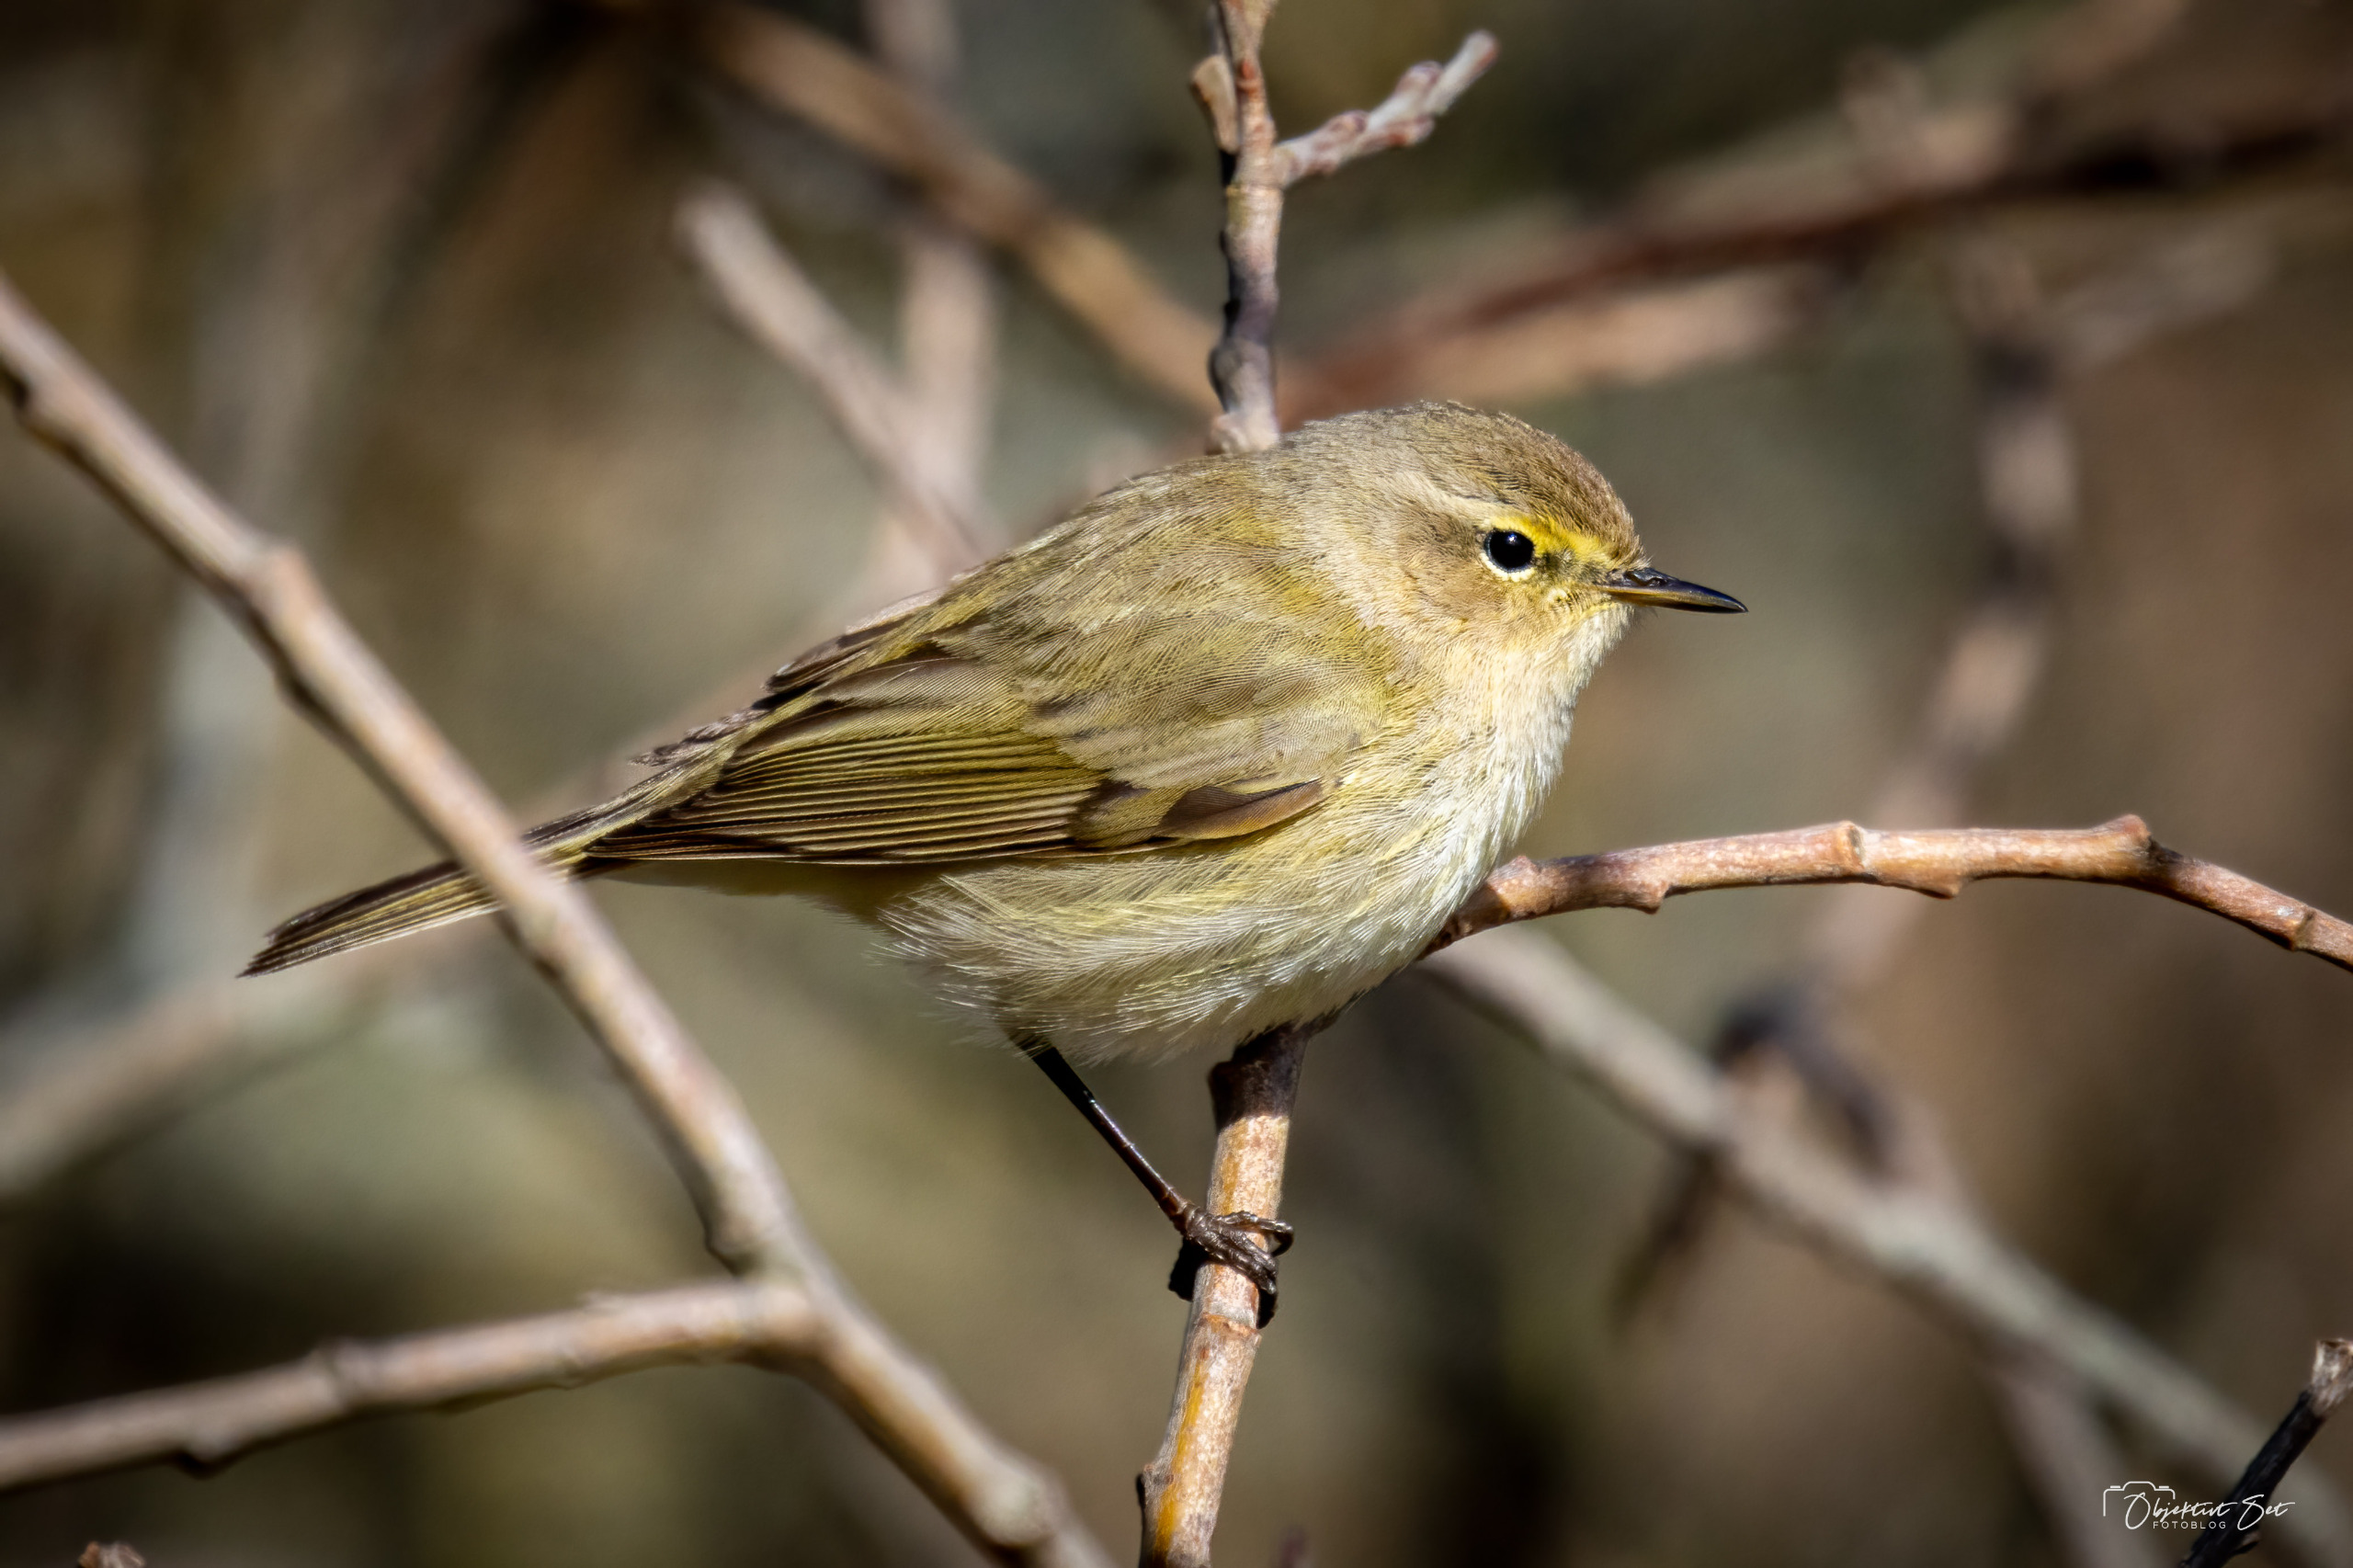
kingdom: Animalia
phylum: Chordata
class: Aves
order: Passeriformes
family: Phylloscopidae
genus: Phylloscopus
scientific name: Phylloscopus collybita
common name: Gransanger
